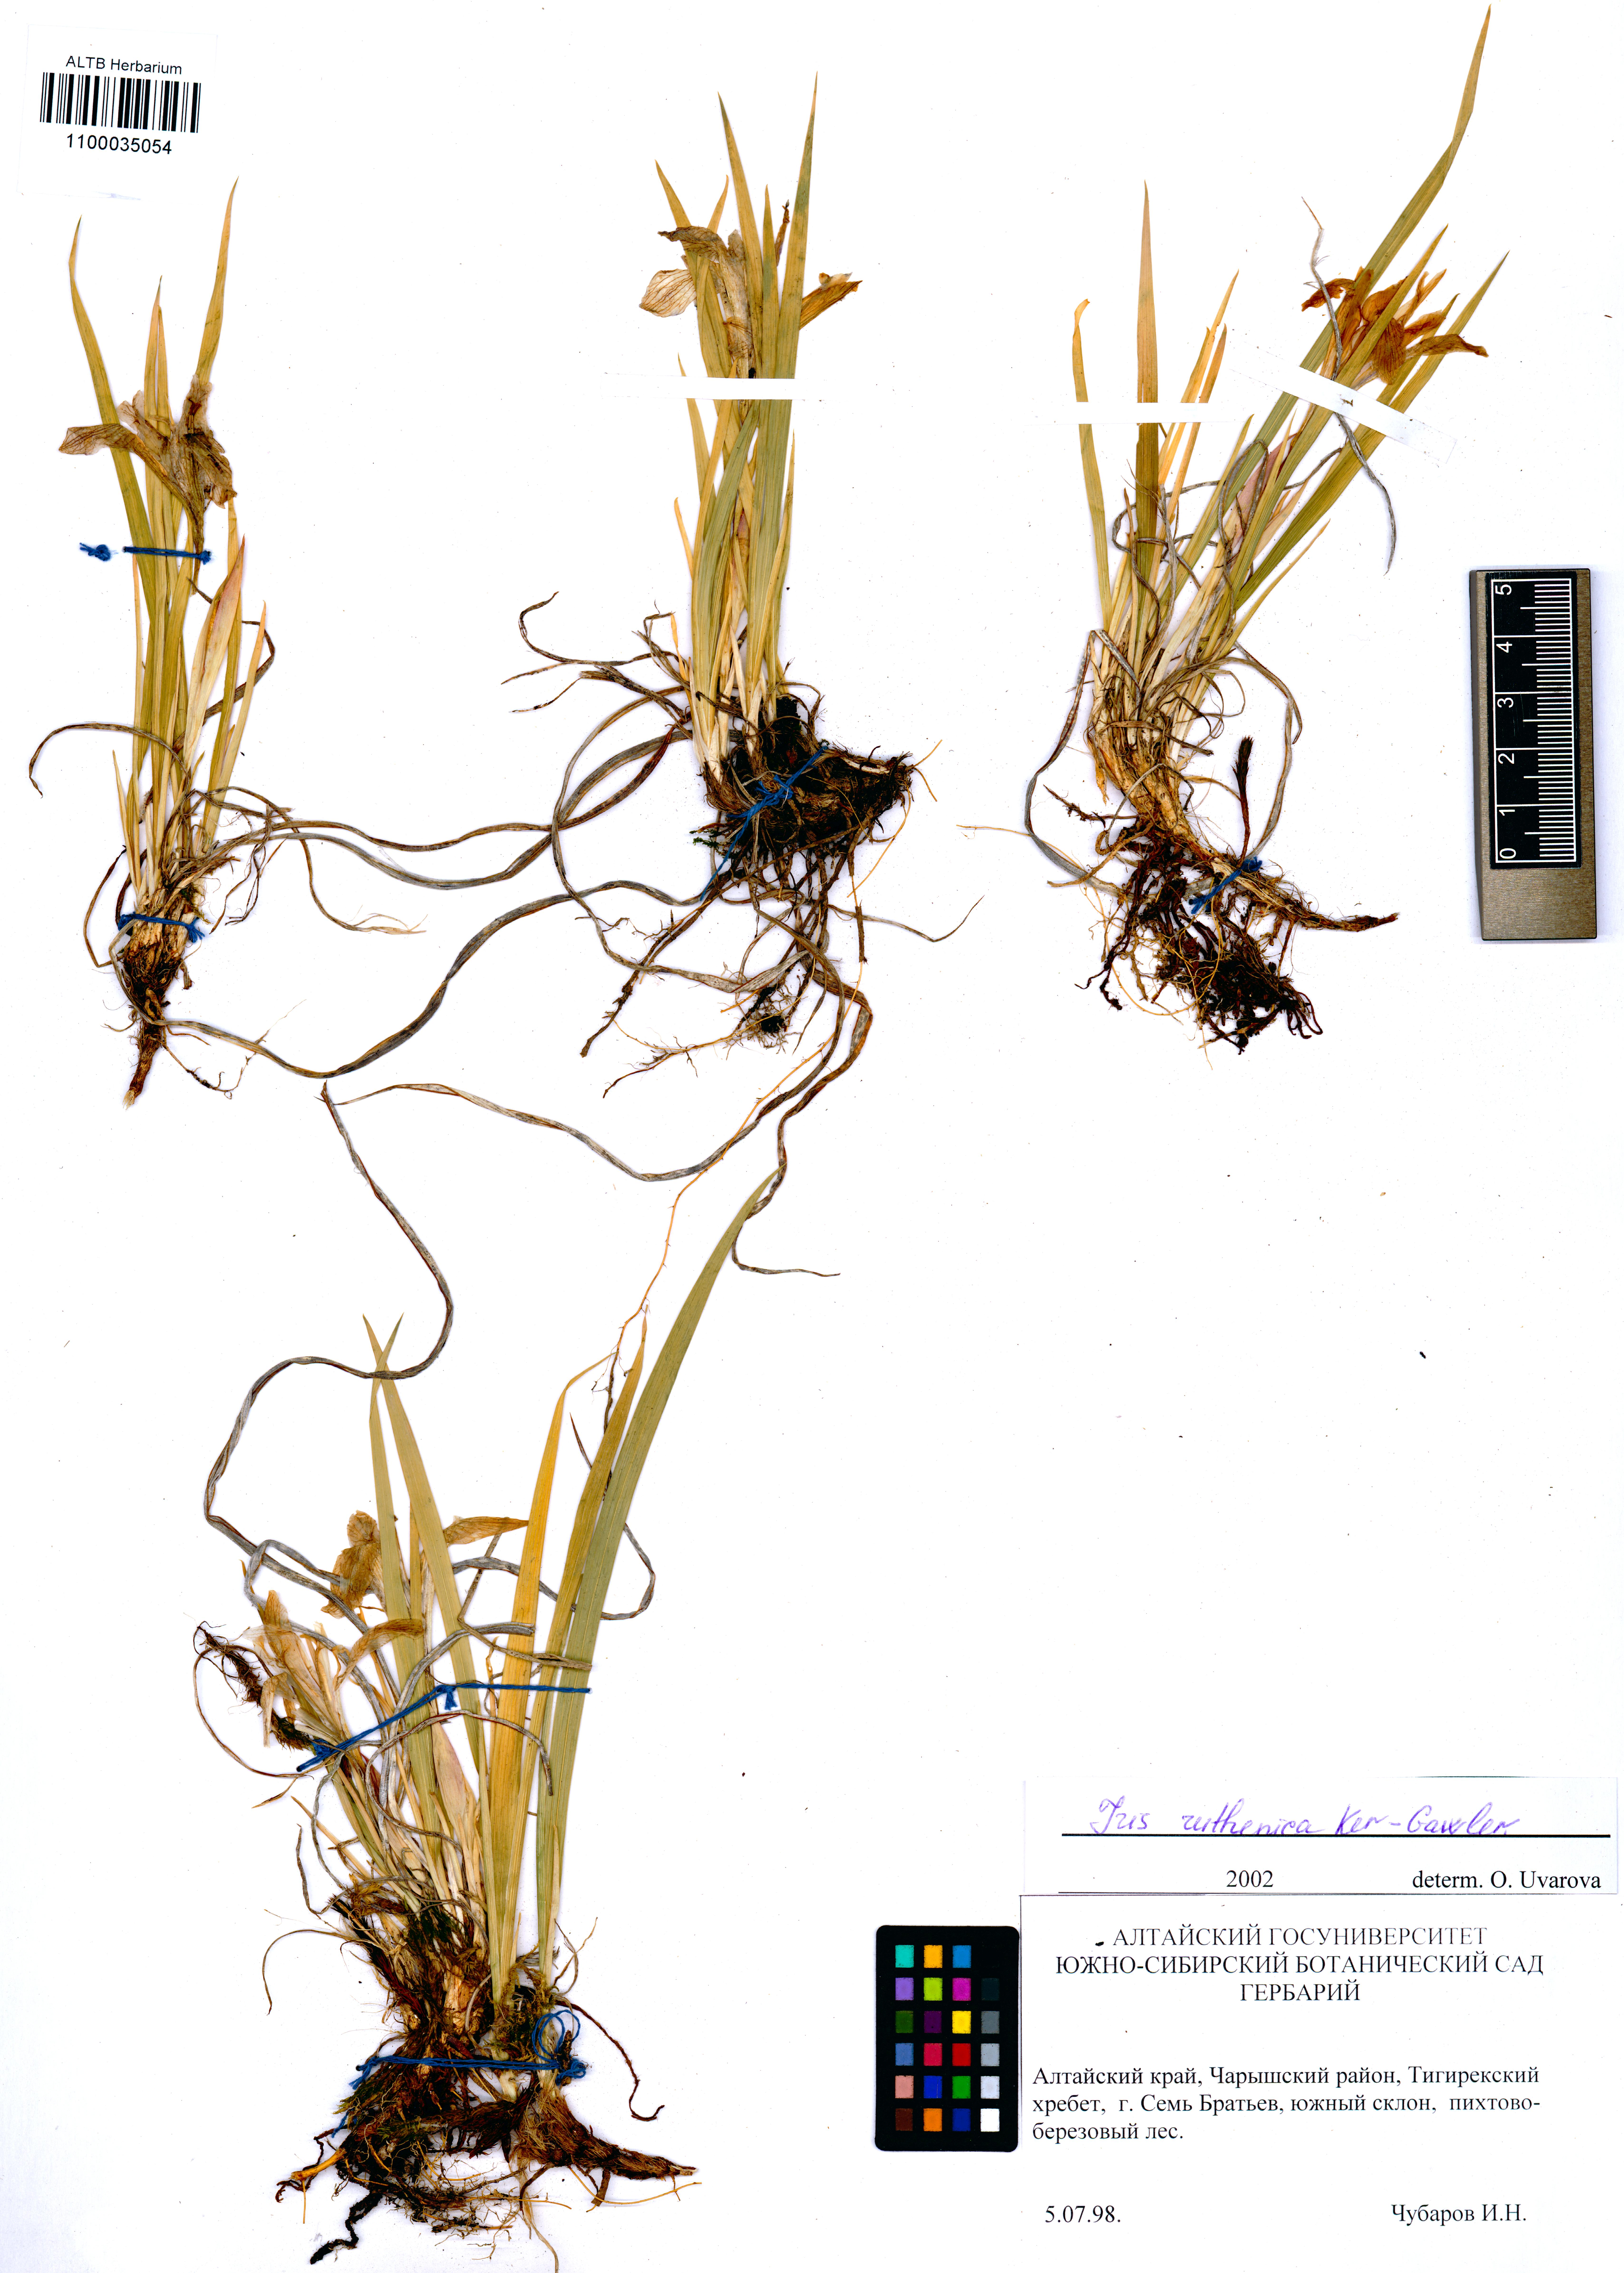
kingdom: Plantae
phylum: Tracheophyta
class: Liliopsida
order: Asparagales
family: Iridaceae
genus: Iris
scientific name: Iris ruthenica
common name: Purple-bract iris
